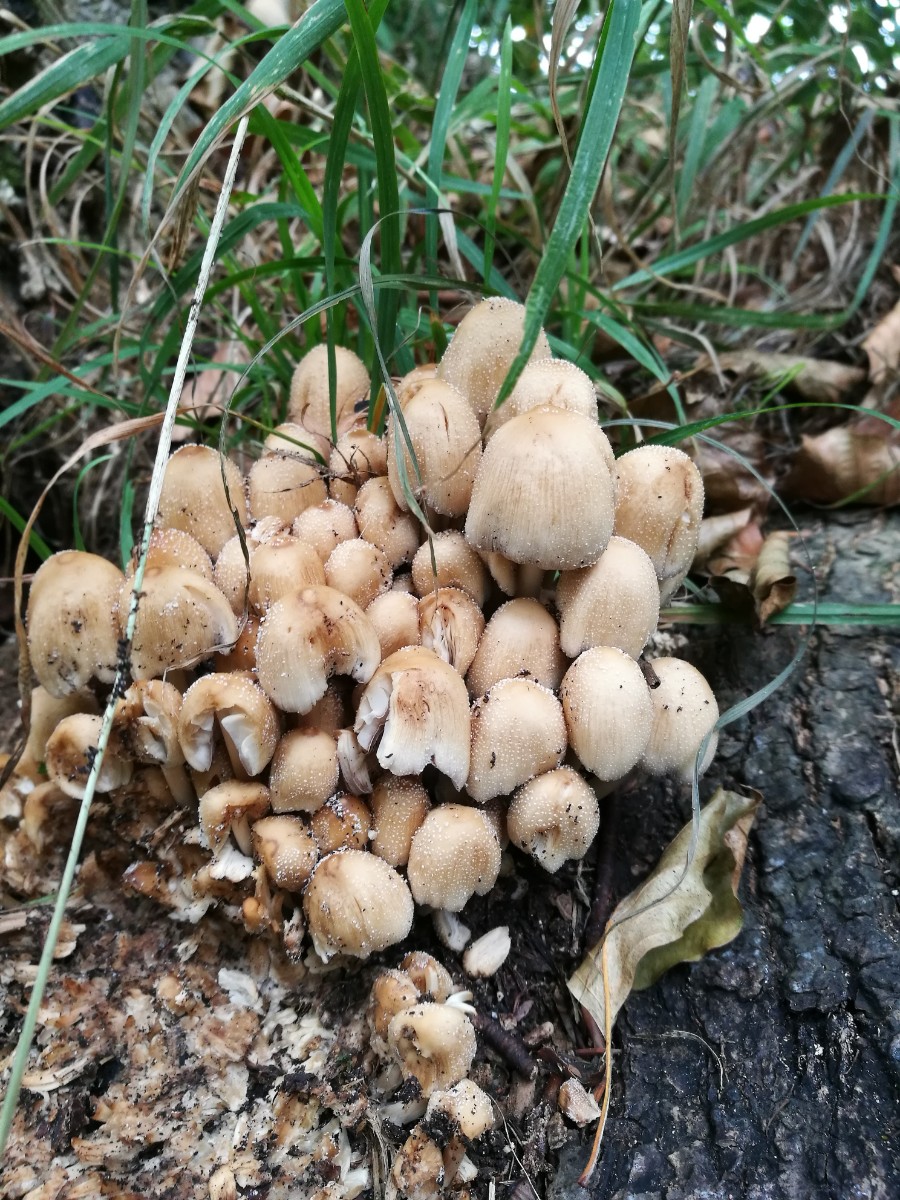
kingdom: Fungi
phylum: Basidiomycota
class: Agaricomycetes
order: Agaricales
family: Psathyrellaceae
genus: Coprinellus
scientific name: Coprinellus micaceus
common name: glimmer-blækhat
